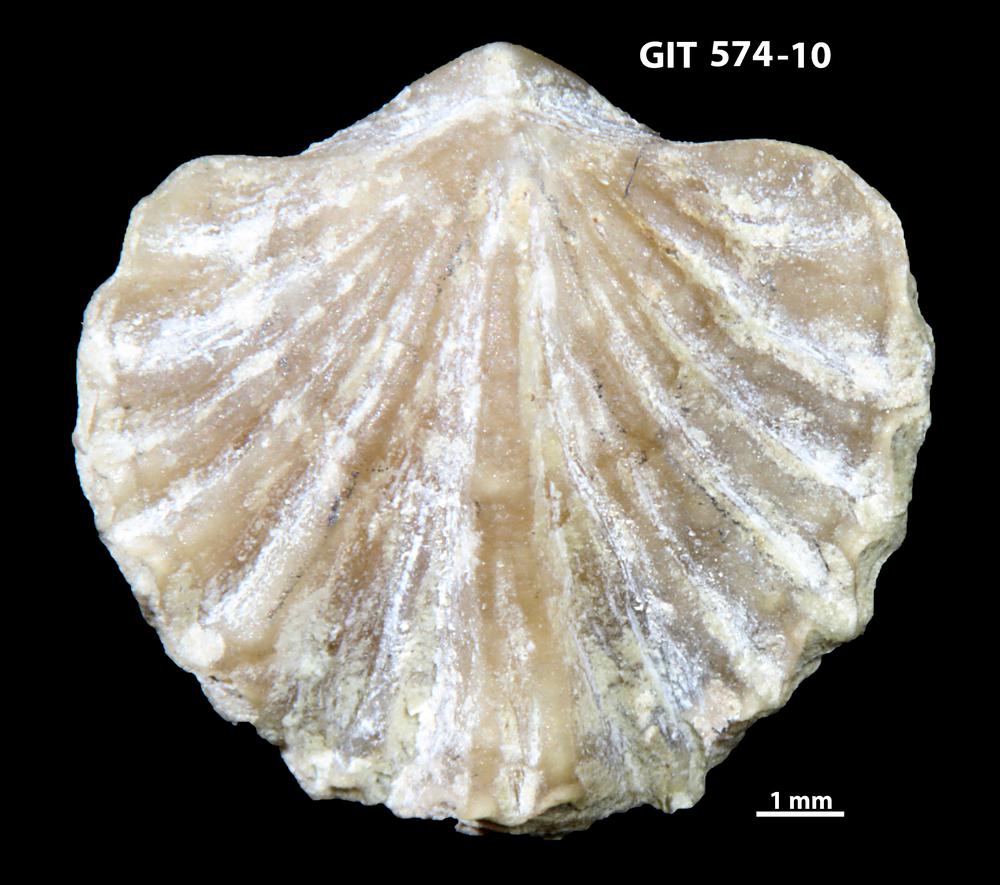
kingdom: Animalia
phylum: Brachiopoda
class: Rhynchonellata
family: Atrypinidae
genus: Eospirigerina
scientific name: Eospirigerina sulevi
